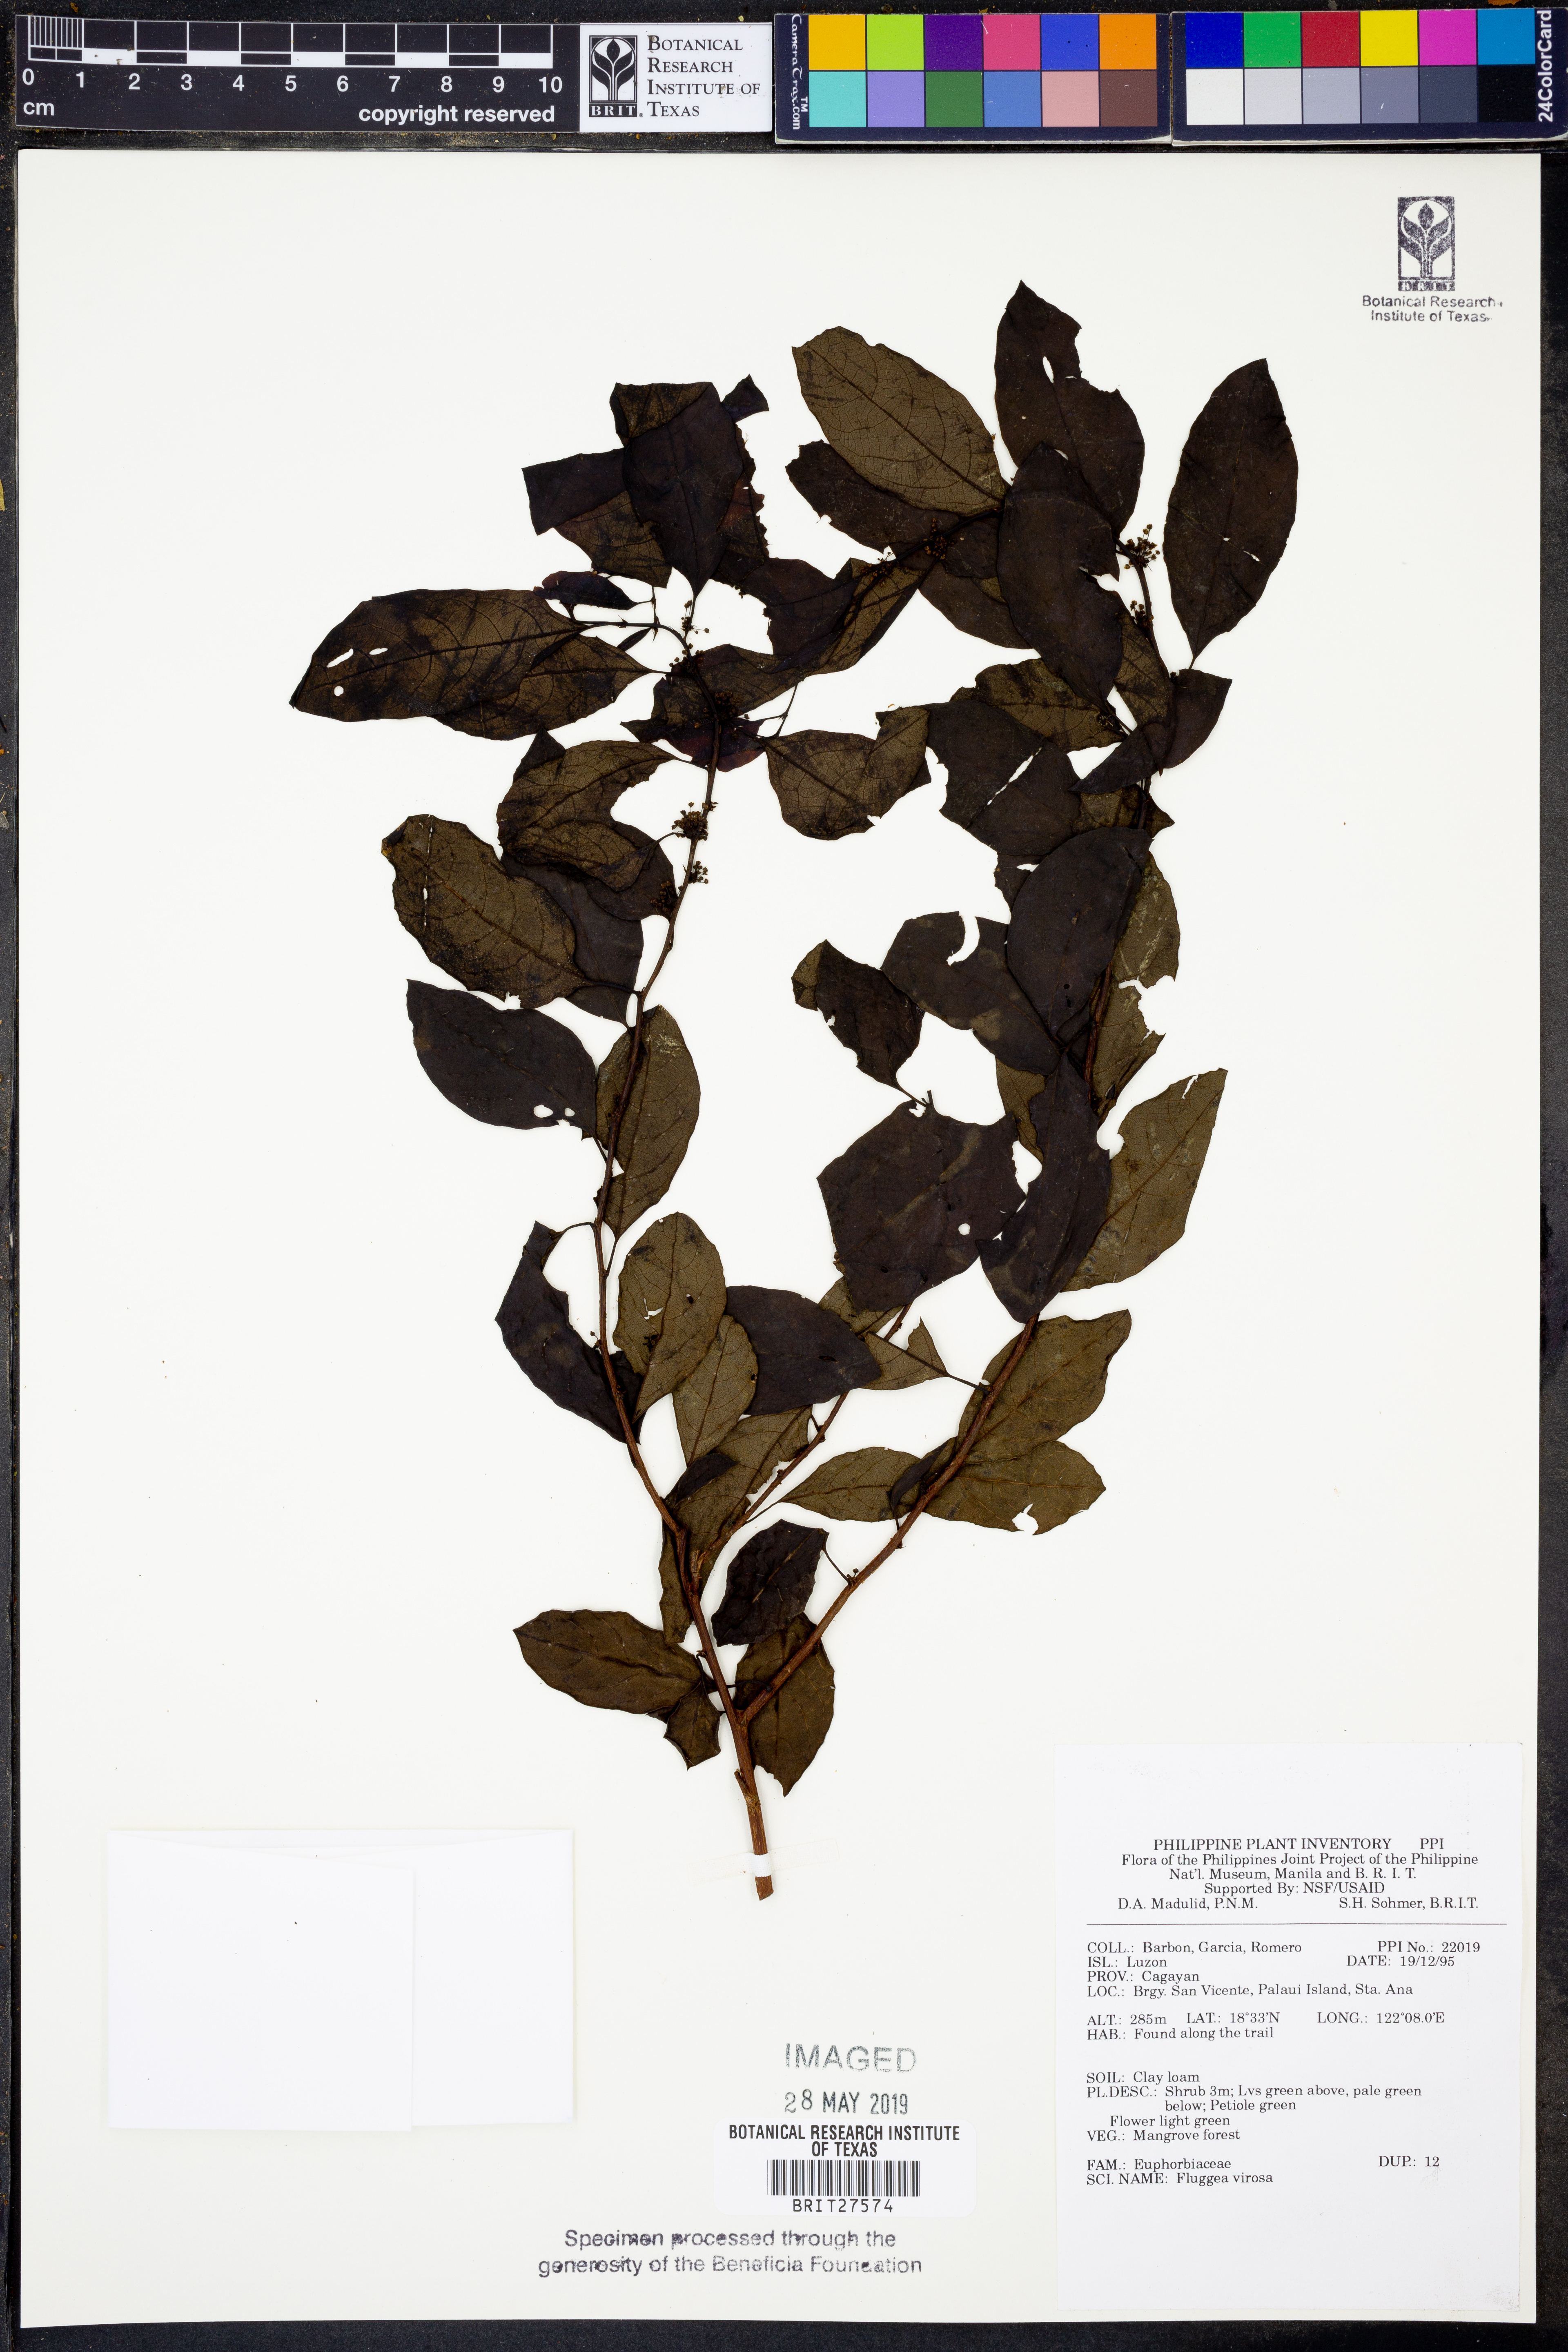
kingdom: Plantae
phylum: Tracheophyta
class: Magnoliopsida
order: Malpighiales
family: Phyllanthaceae
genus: Flueggea
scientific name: Flueggea virosa
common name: Common bushweed
